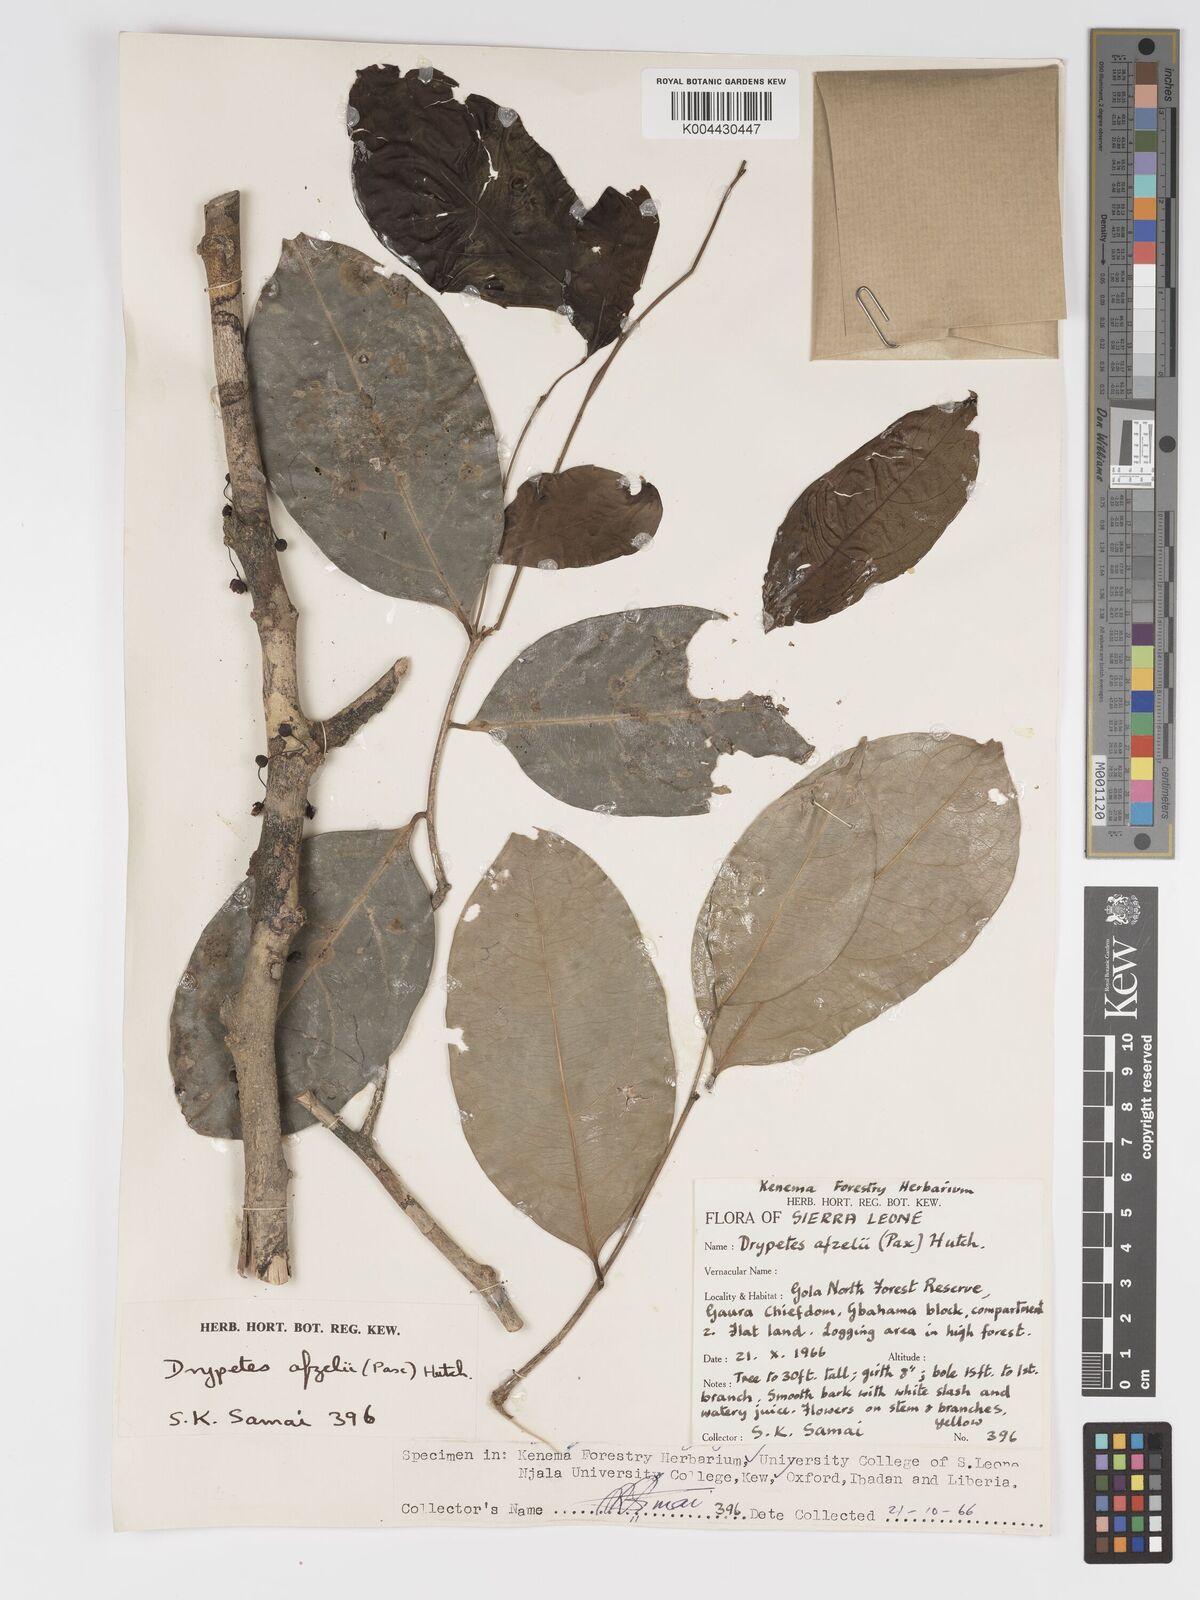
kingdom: Plantae
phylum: Tracheophyta
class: Magnoliopsida
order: Malpighiales
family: Putranjivaceae
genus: Drypetes
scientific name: Drypetes afzelii
